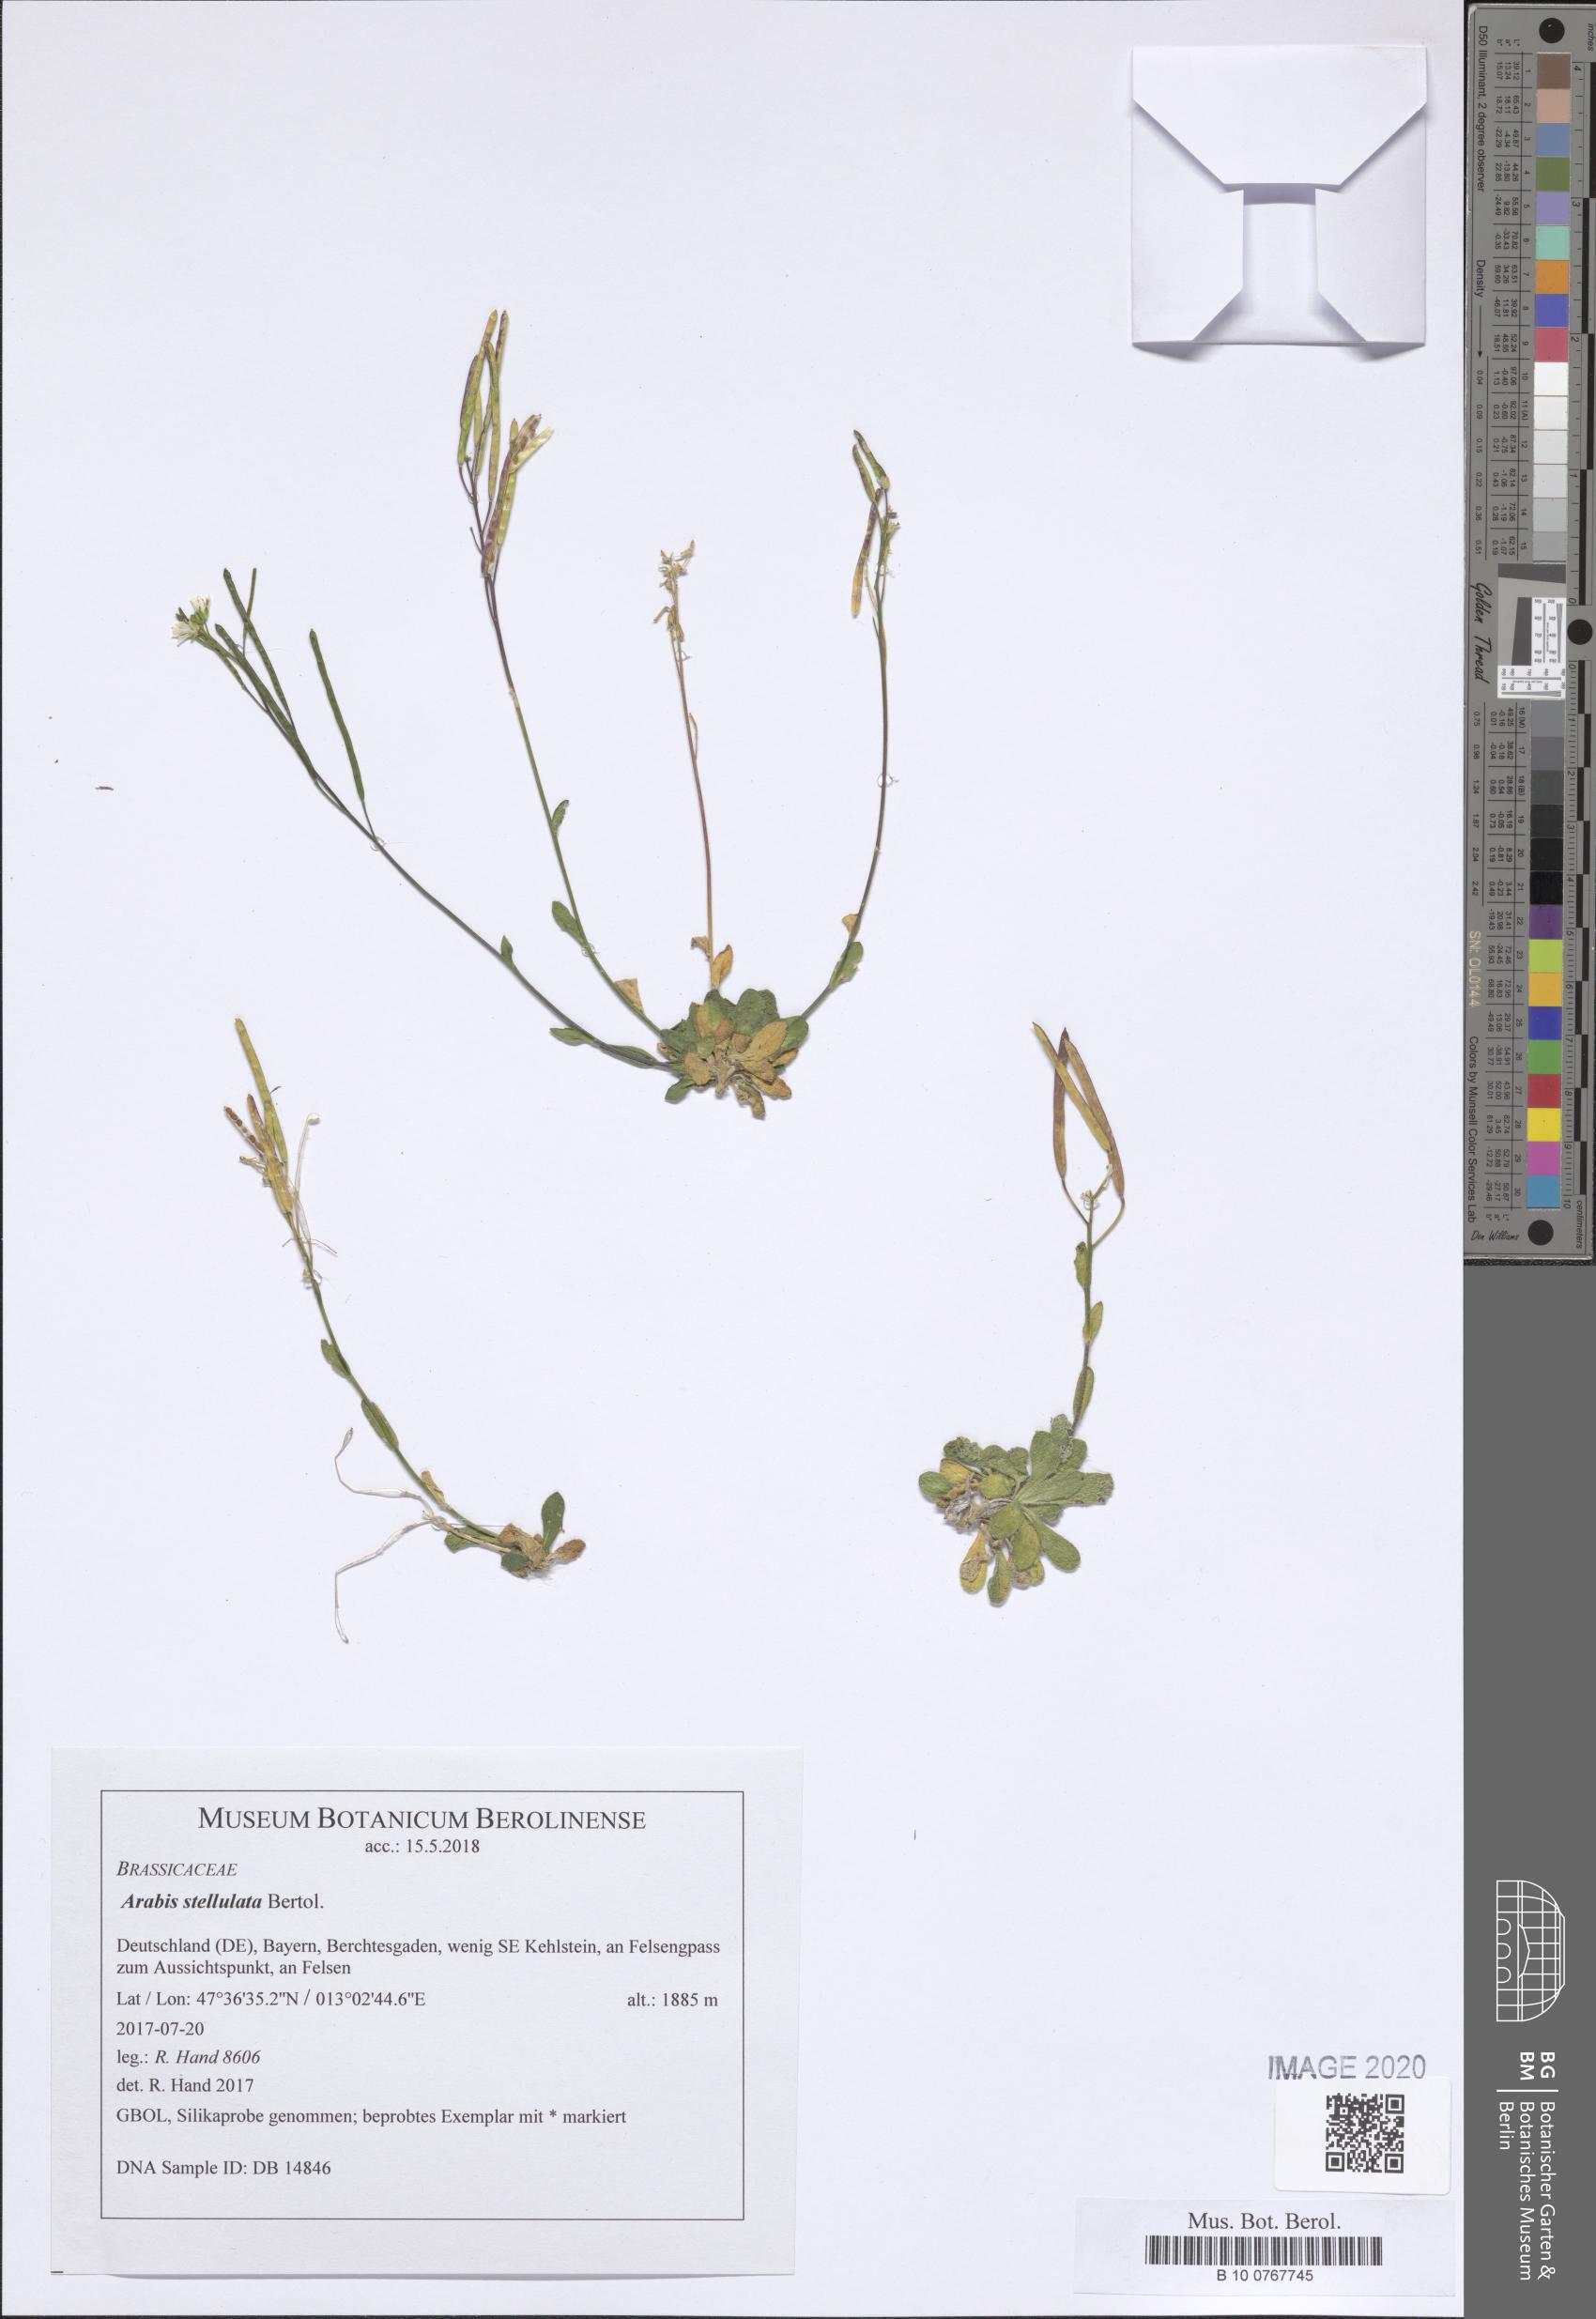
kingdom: Plantae
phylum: Tracheophyta
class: Magnoliopsida
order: Brassicales
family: Brassicaceae
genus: Arabis
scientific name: Arabis stellulata
